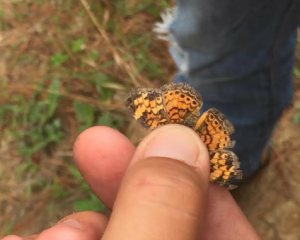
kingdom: Animalia
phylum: Arthropoda
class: Insecta
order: Lepidoptera
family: Nymphalidae
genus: Phyciodes
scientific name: Phyciodes tharos
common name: Pearl Crescent
